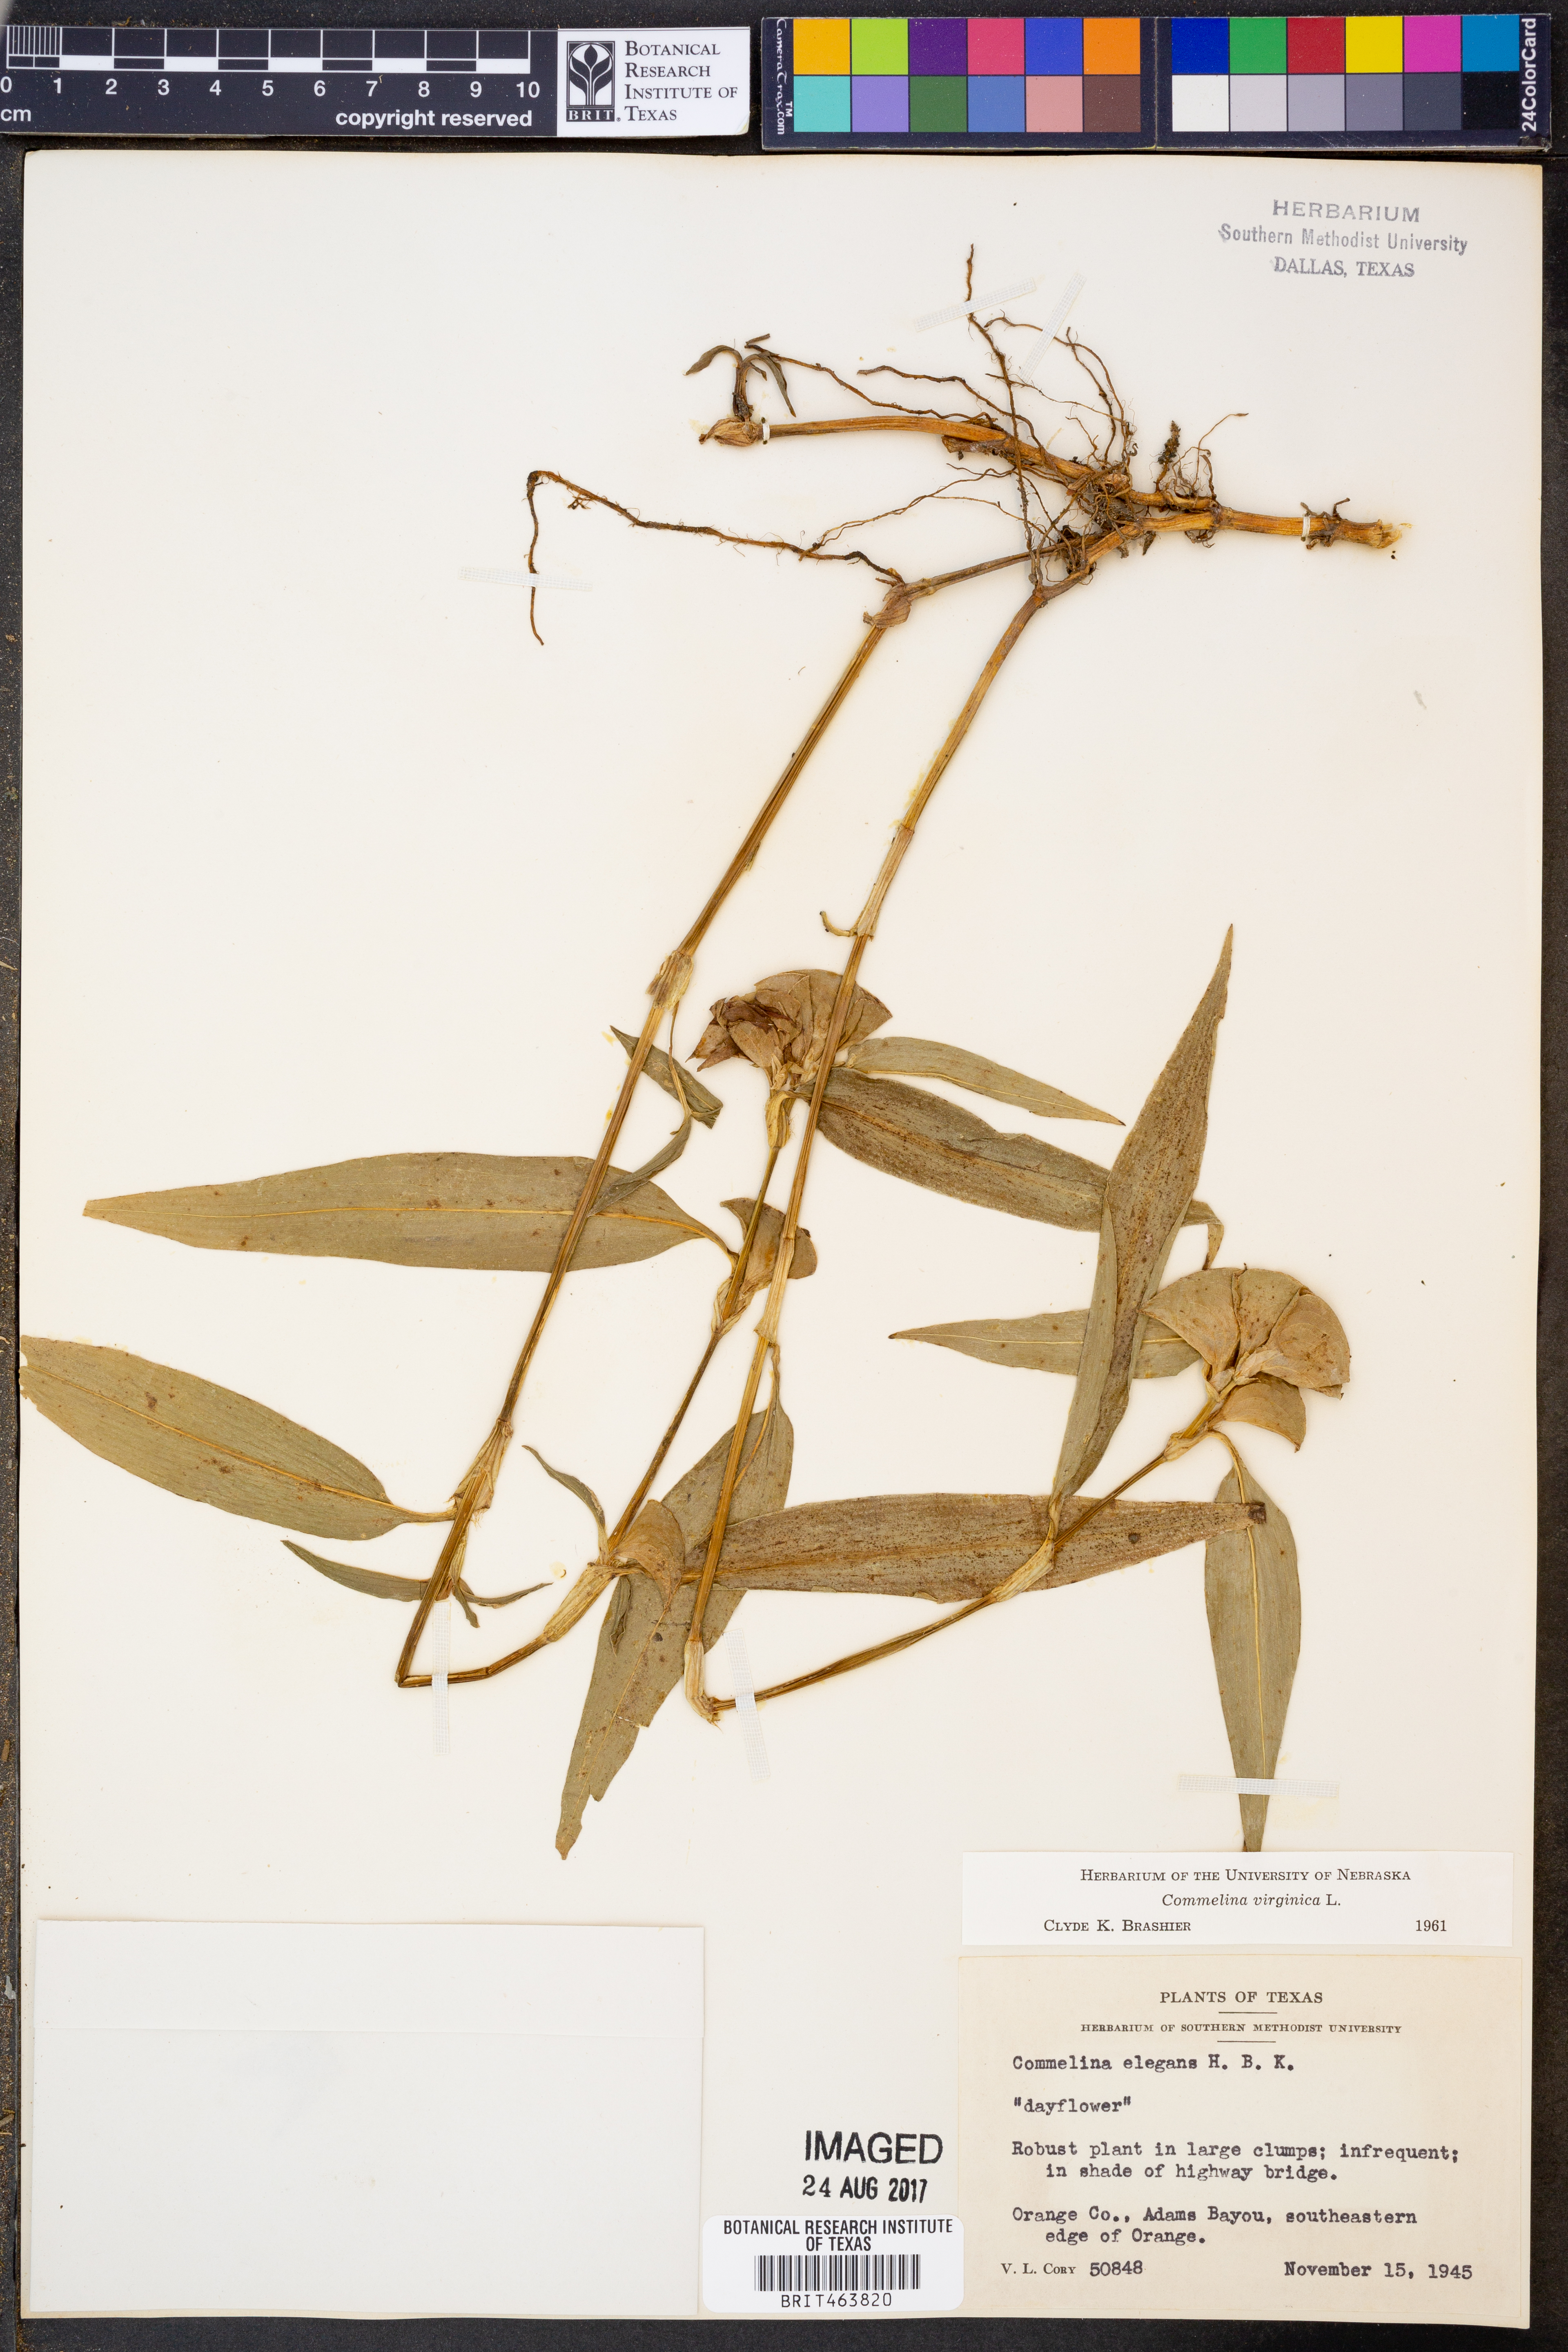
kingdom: Plantae
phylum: Tracheophyta
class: Liliopsida
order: Commelinales
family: Commelinaceae
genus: Commelina
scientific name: Commelina virginica
